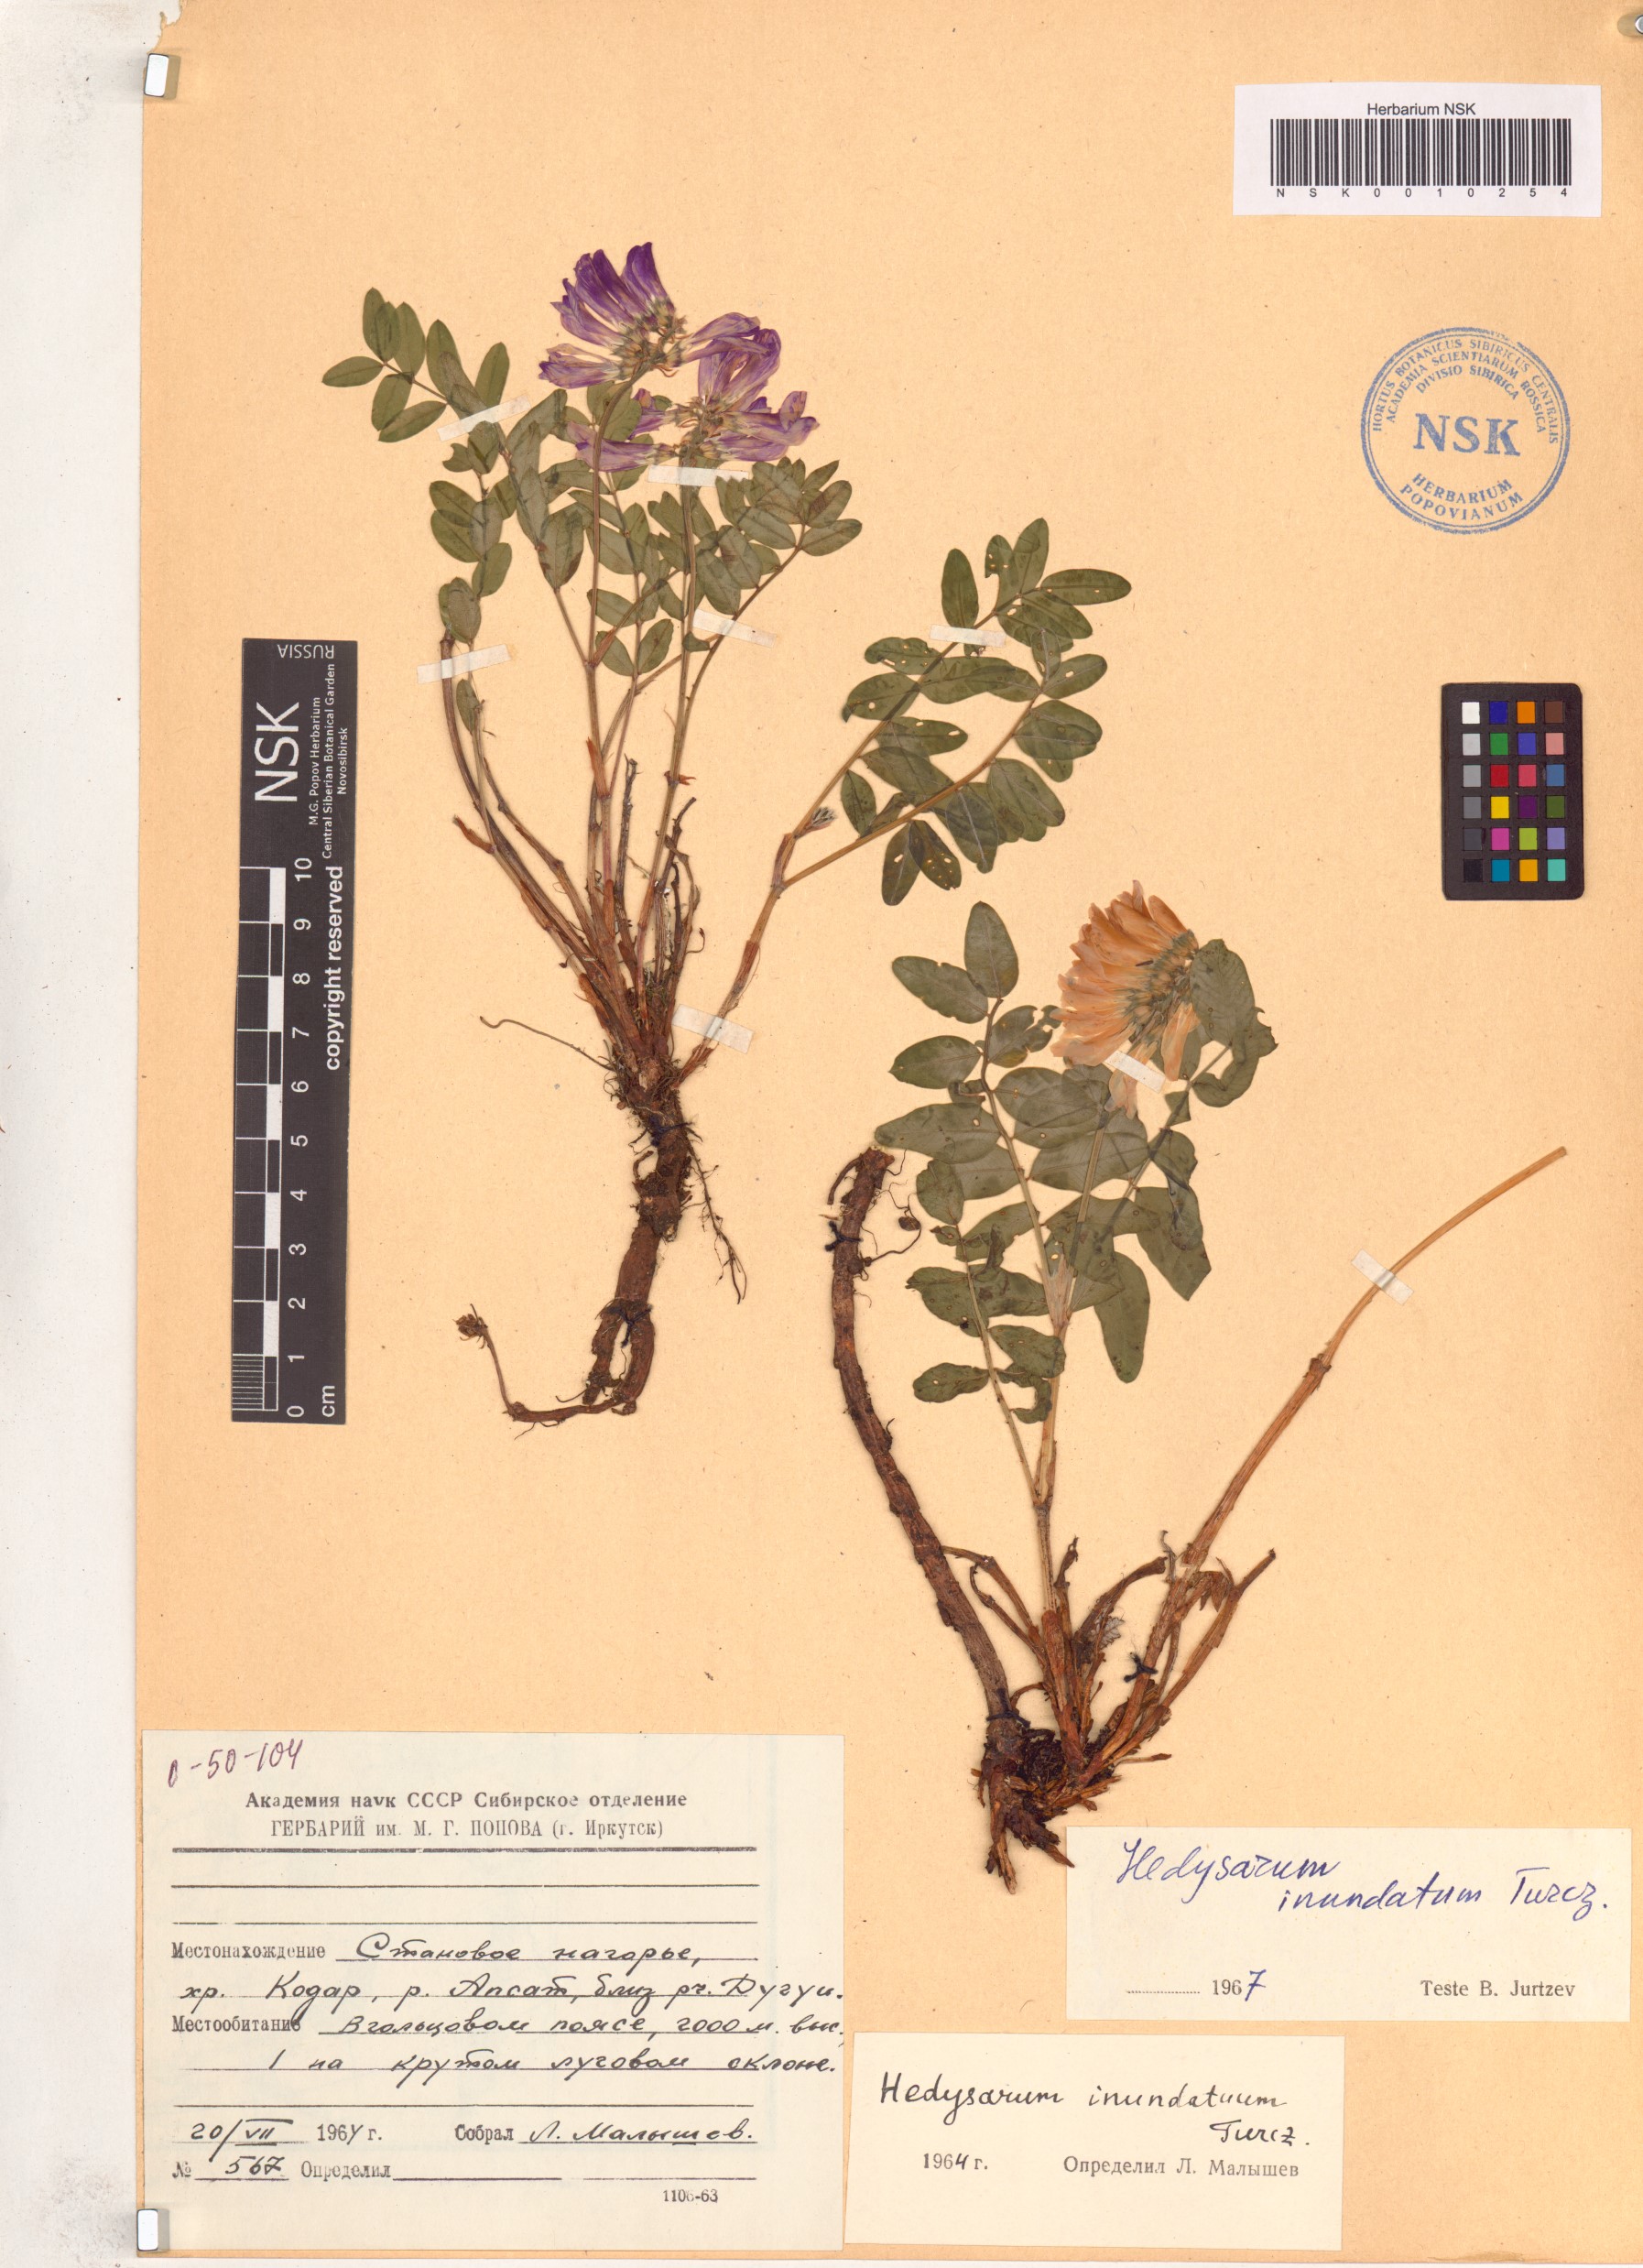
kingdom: Plantae
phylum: Tracheophyta
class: Magnoliopsida
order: Fabales
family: Fabaceae
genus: Hedysarum
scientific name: Hedysarum inundatum
